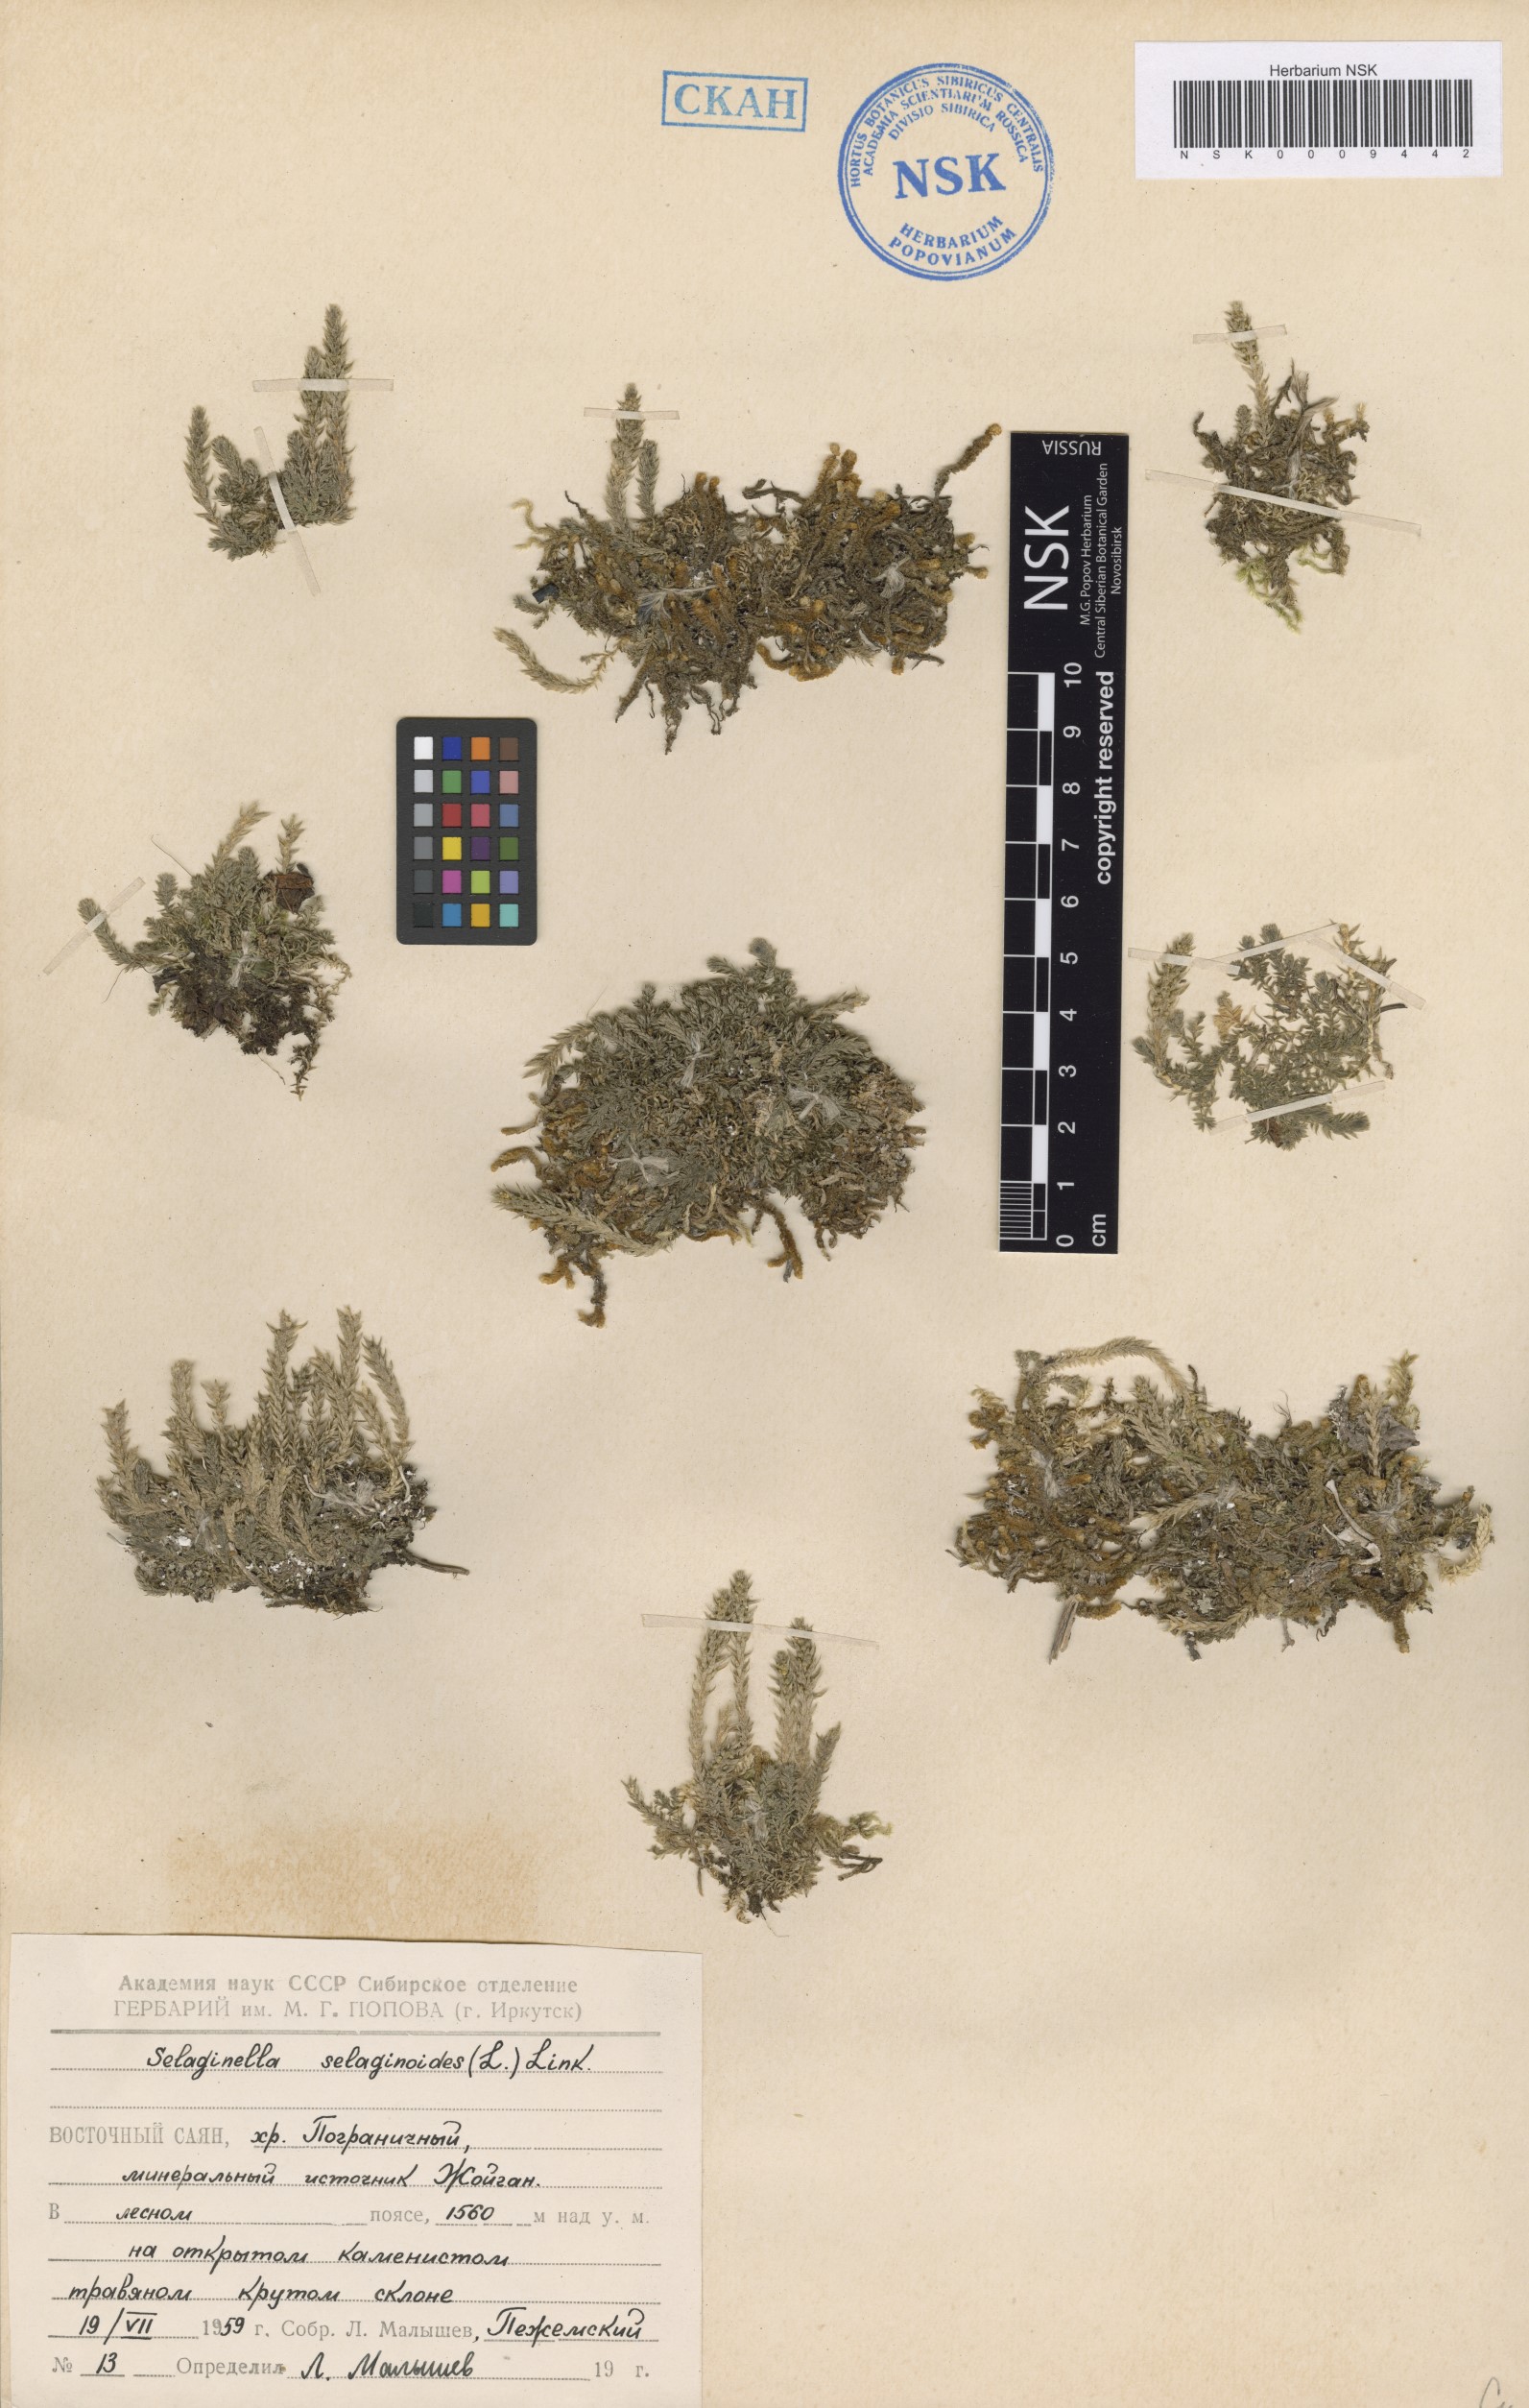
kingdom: Plantae
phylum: Tracheophyta
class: Lycopodiopsida
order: Selaginellales
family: Selaginellaceae
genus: Selaginella
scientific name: Selaginella selaginoides
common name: Prickly mountain-moss
